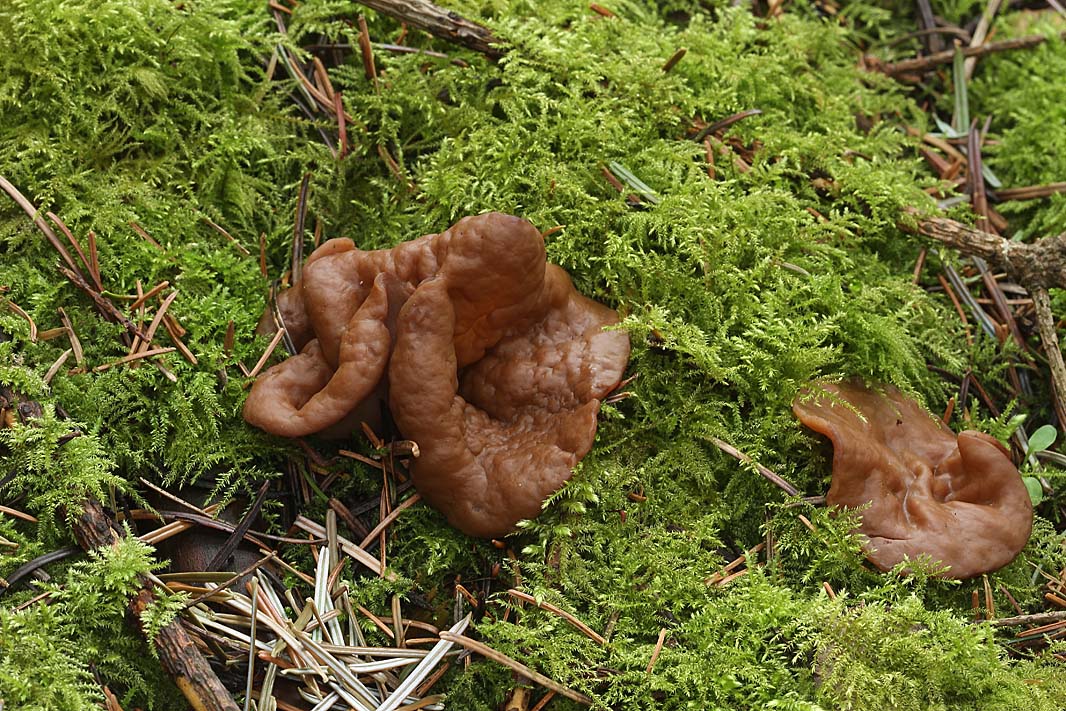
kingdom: Fungi
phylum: Ascomycota
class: Pezizomycetes
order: Pezizales
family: Discinaceae
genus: Discina
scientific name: Discina ancilis
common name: udbredt stenmorkel
